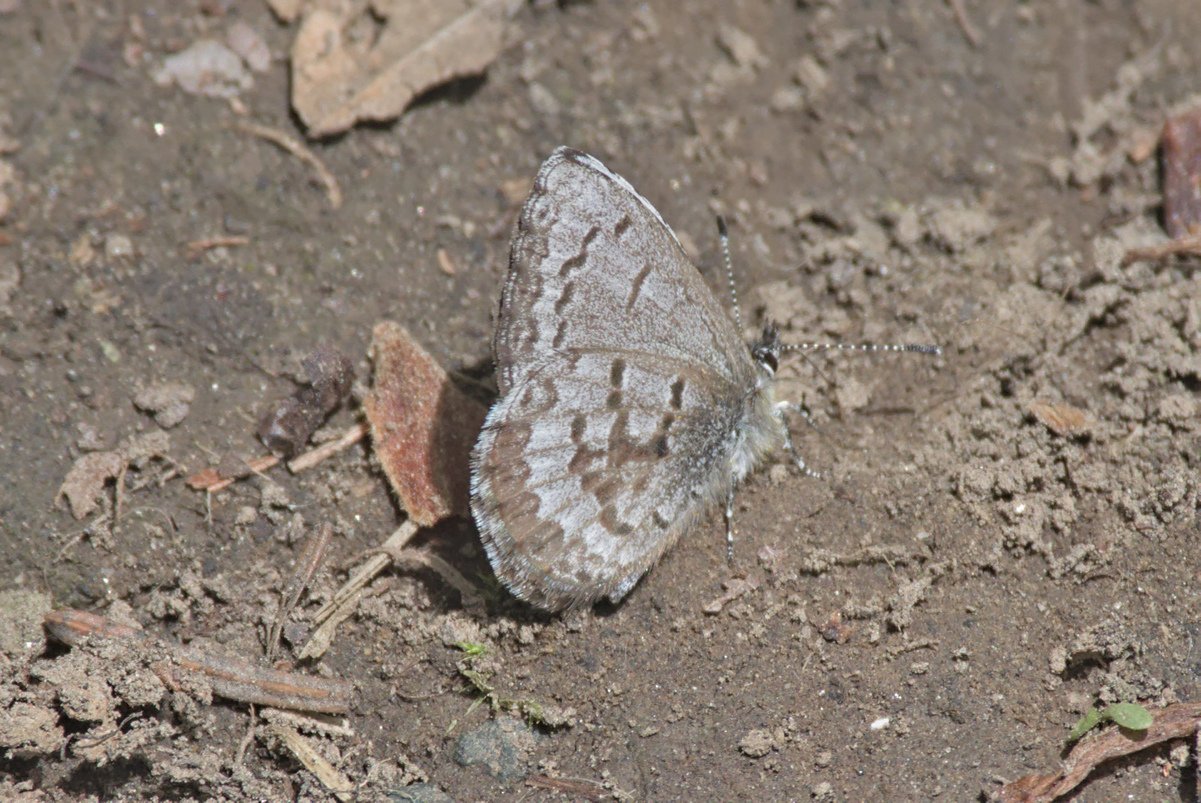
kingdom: Animalia
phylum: Arthropoda
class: Insecta
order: Lepidoptera
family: Lycaenidae
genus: Celastrina
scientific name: Celastrina ladon
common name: Spring Azure
